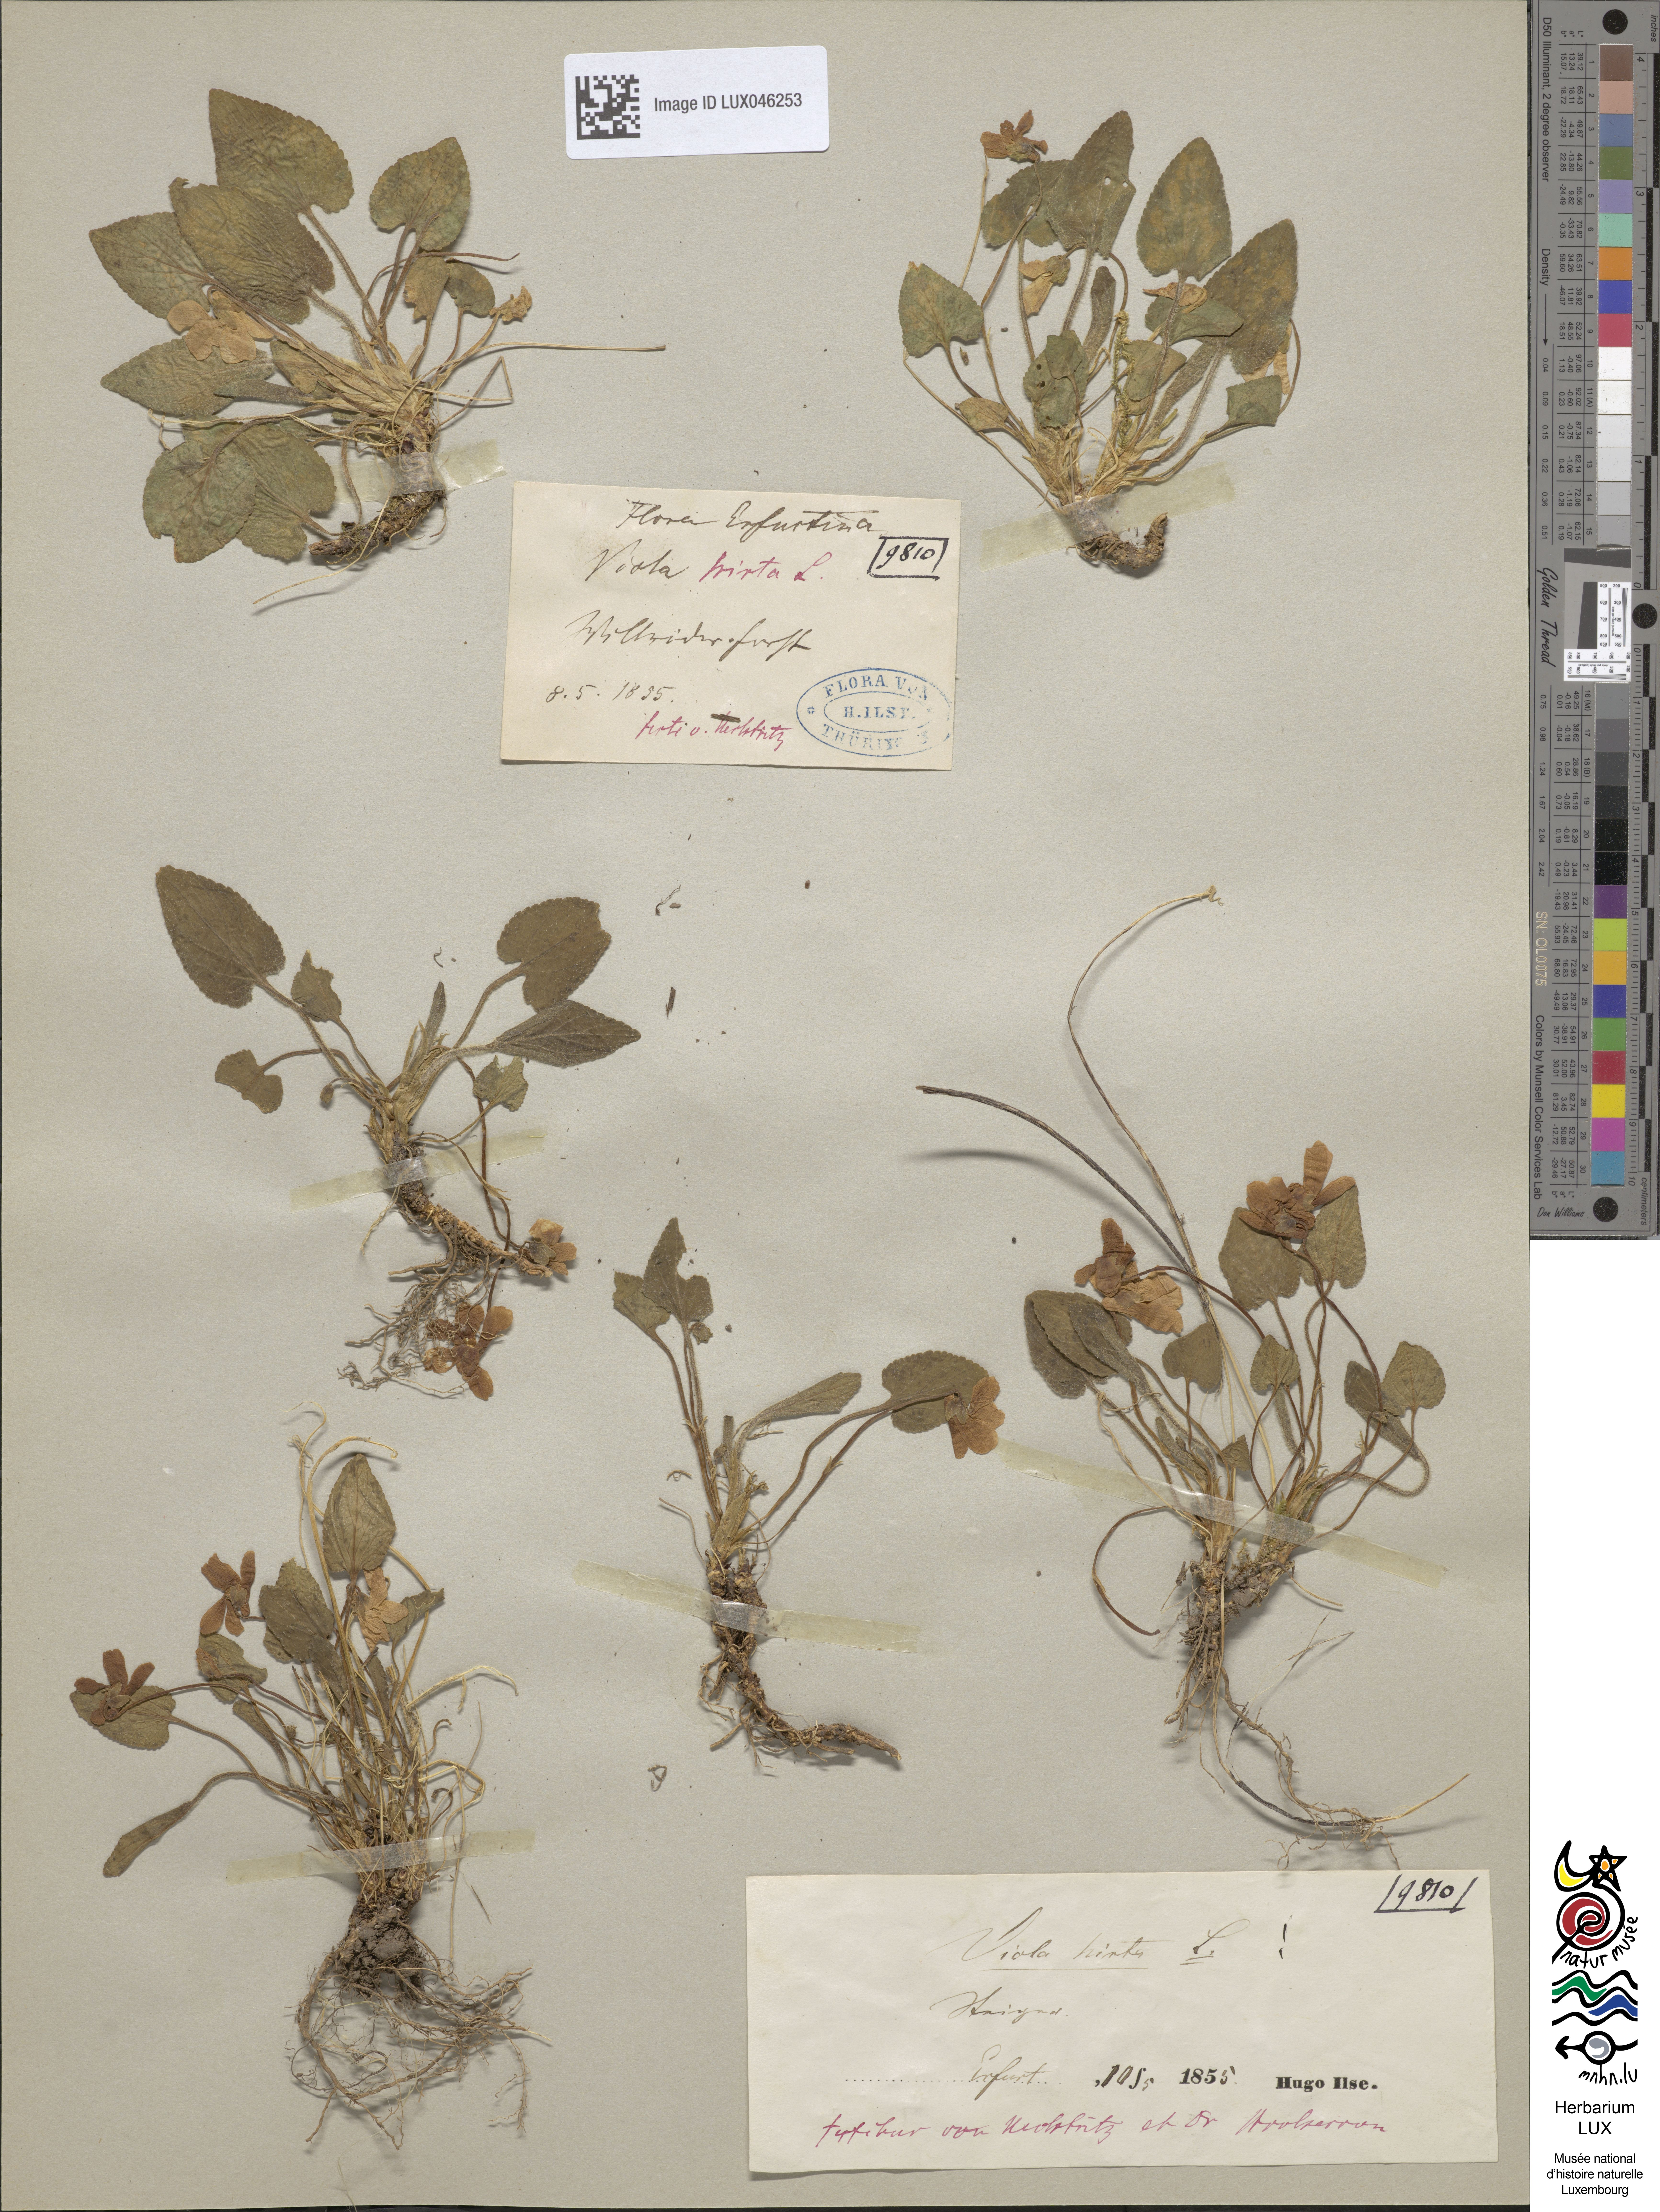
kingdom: Plantae
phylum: Tracheophyta
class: Magnoliopsida
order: Malpighiales
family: Violaceae
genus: Viola
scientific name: Viola hirta
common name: Hairy violet
